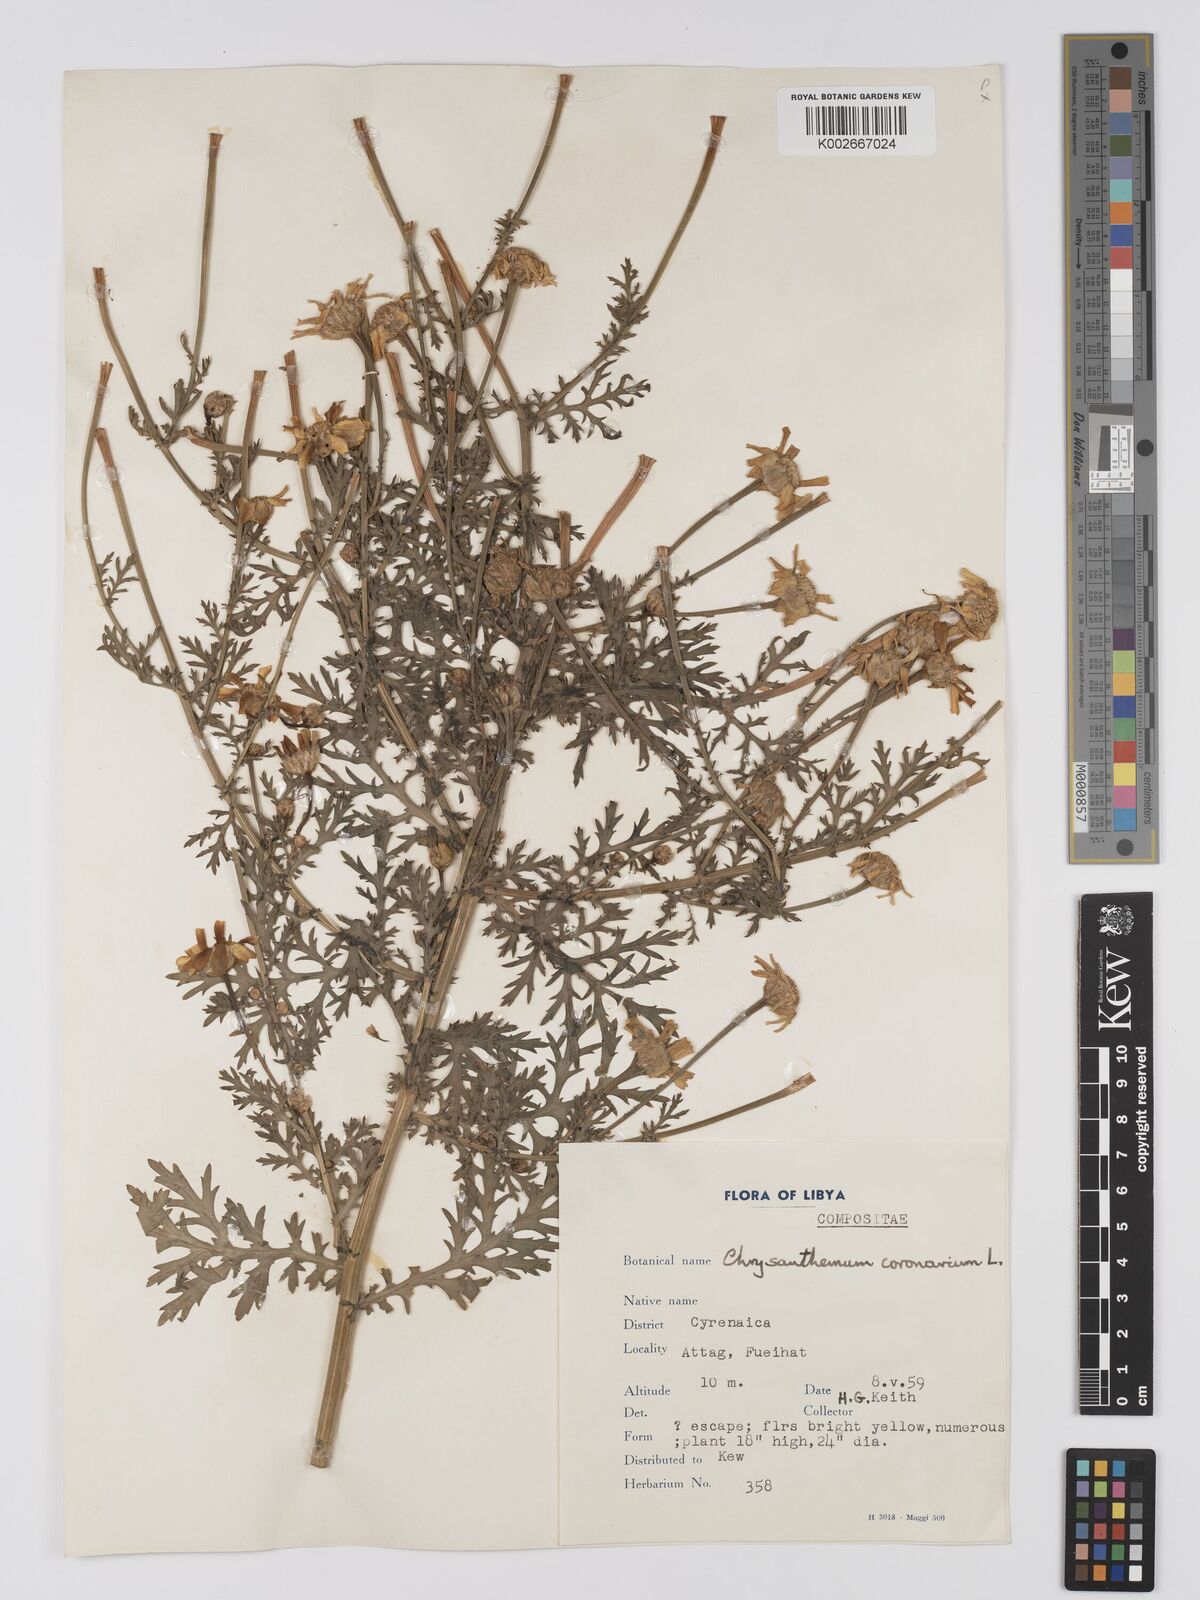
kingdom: Plantae
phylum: Tracheophyta
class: Magnoliopsida
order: Asterales
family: Asteraceae
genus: Glebionis
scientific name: Glebionis coronaria
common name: Crowndaisy
